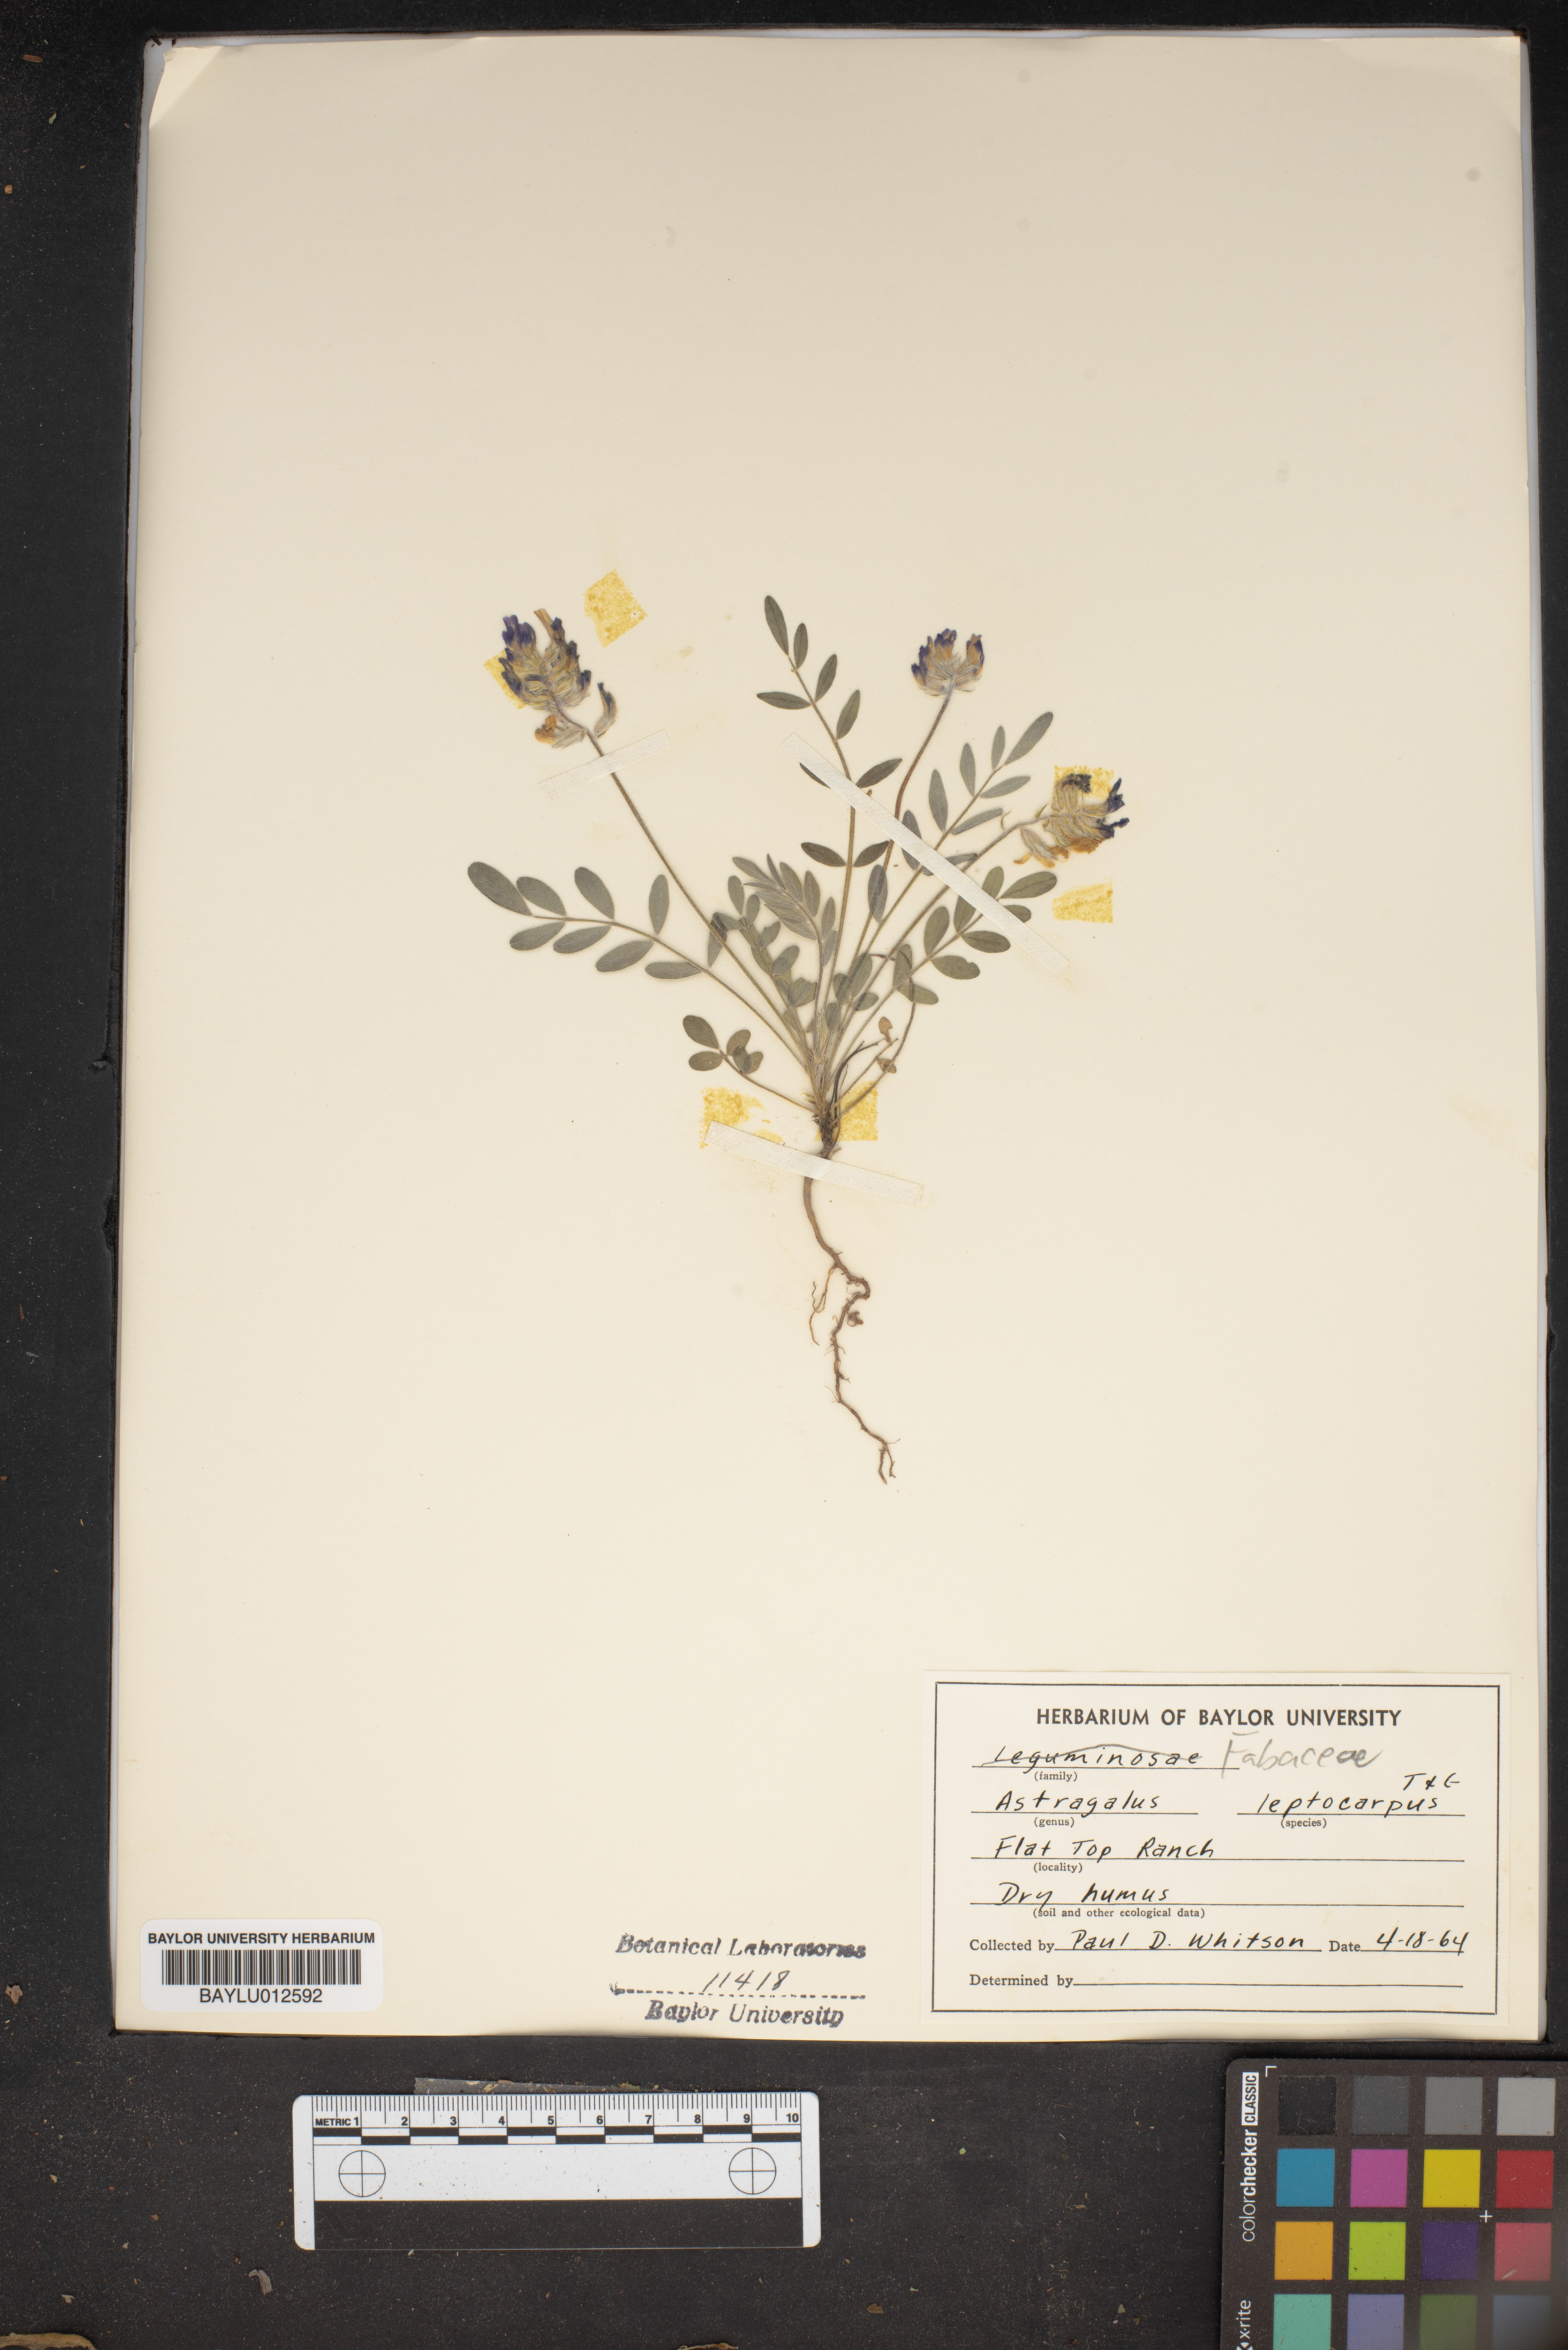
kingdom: Plantae
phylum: Tracheophyta
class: Magnoliopsida
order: Fabales
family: Fabaceae
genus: Astragalus
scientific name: Astragalus leptocarpus
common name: Bodkin milk-vetch
